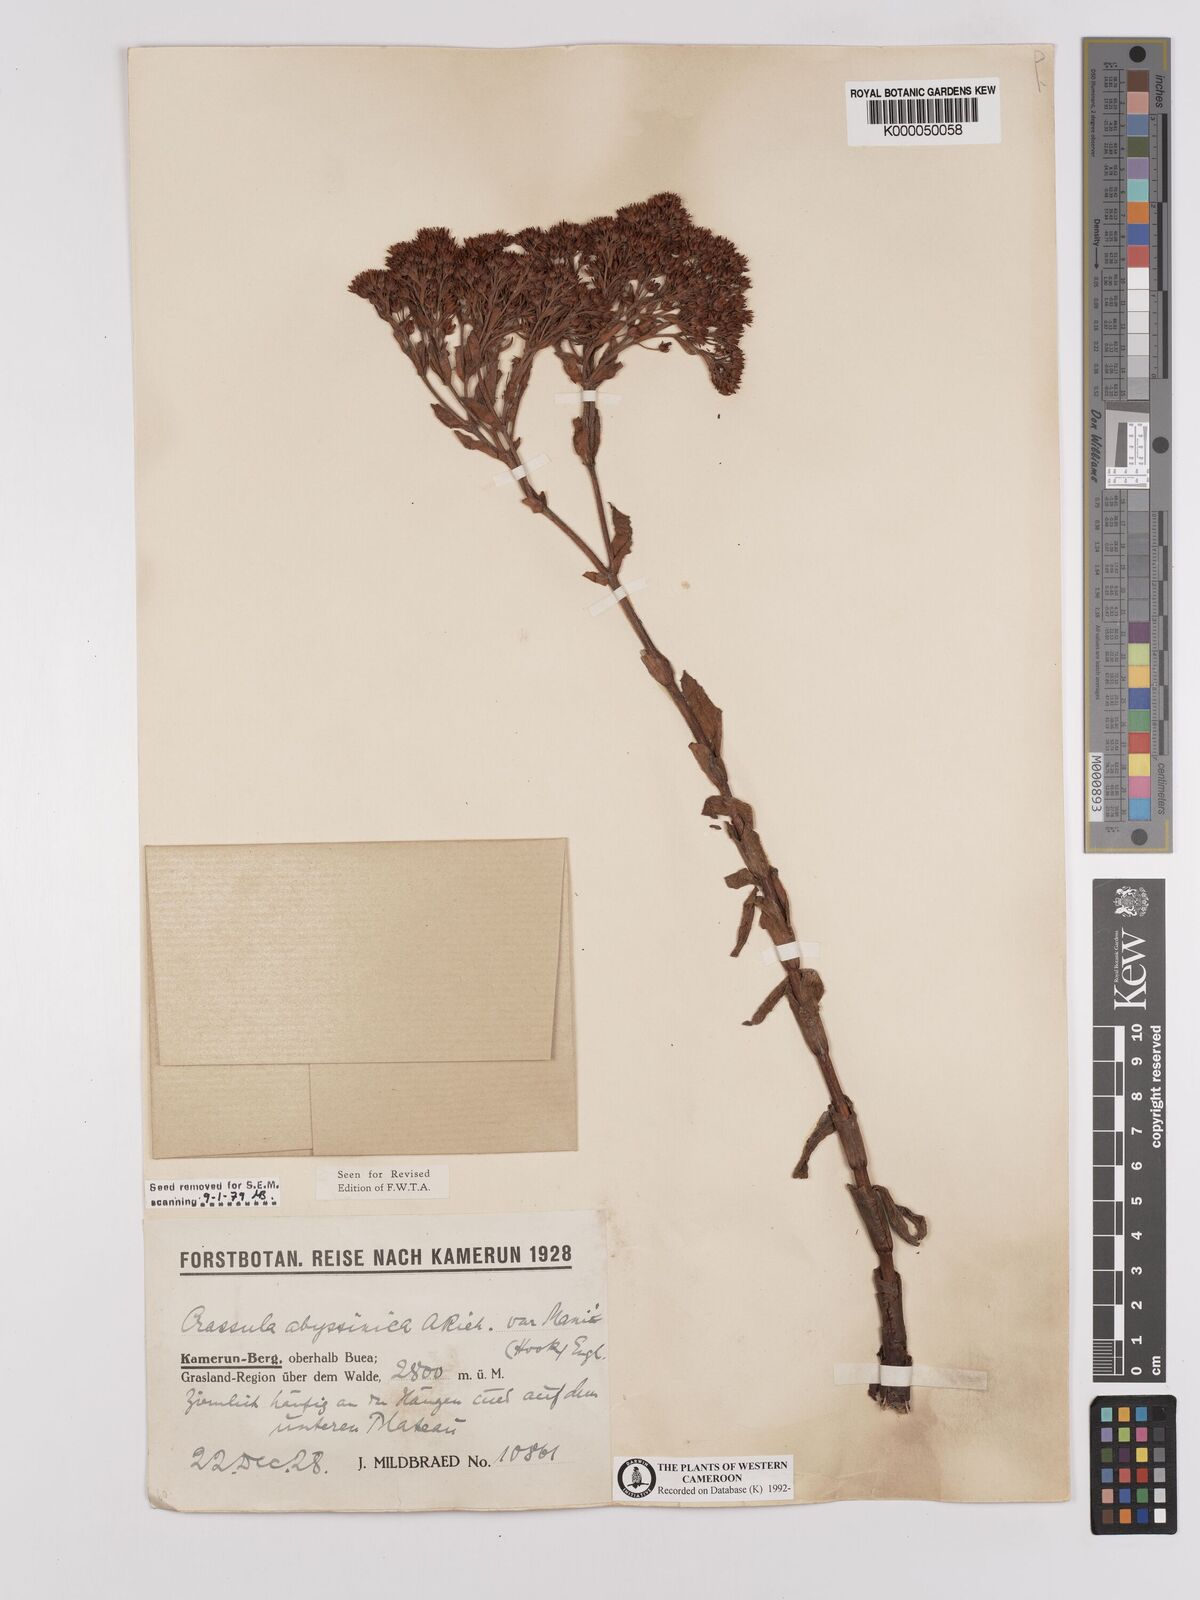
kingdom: Plantae
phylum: Tracheophyta
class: Magnoliopsida
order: Saxifragales
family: Crassulaceae
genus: Crassula
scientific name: Crassula vaginata
